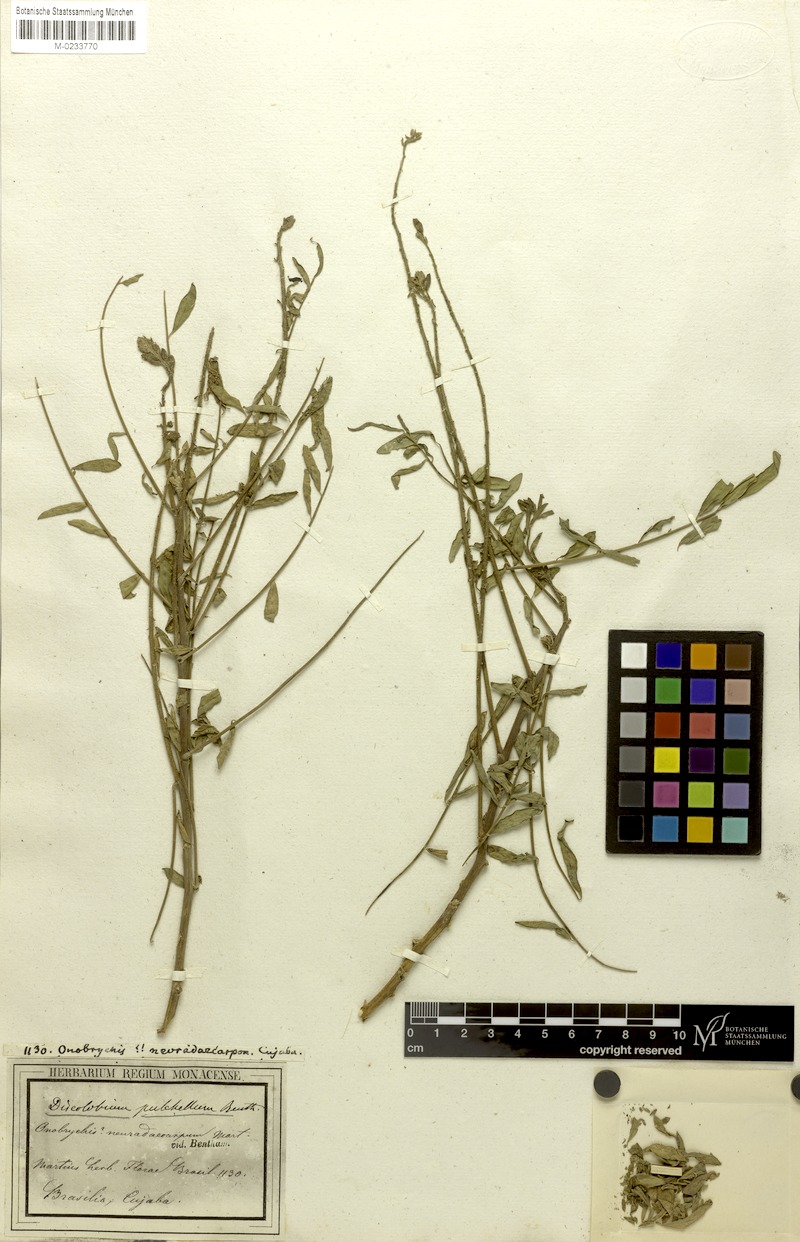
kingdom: Plantae
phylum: Tracheophyta
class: Magnoliopsida
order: Fabales
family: Fabaceae
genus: Discolobium
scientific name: Discolobium pulchellum
